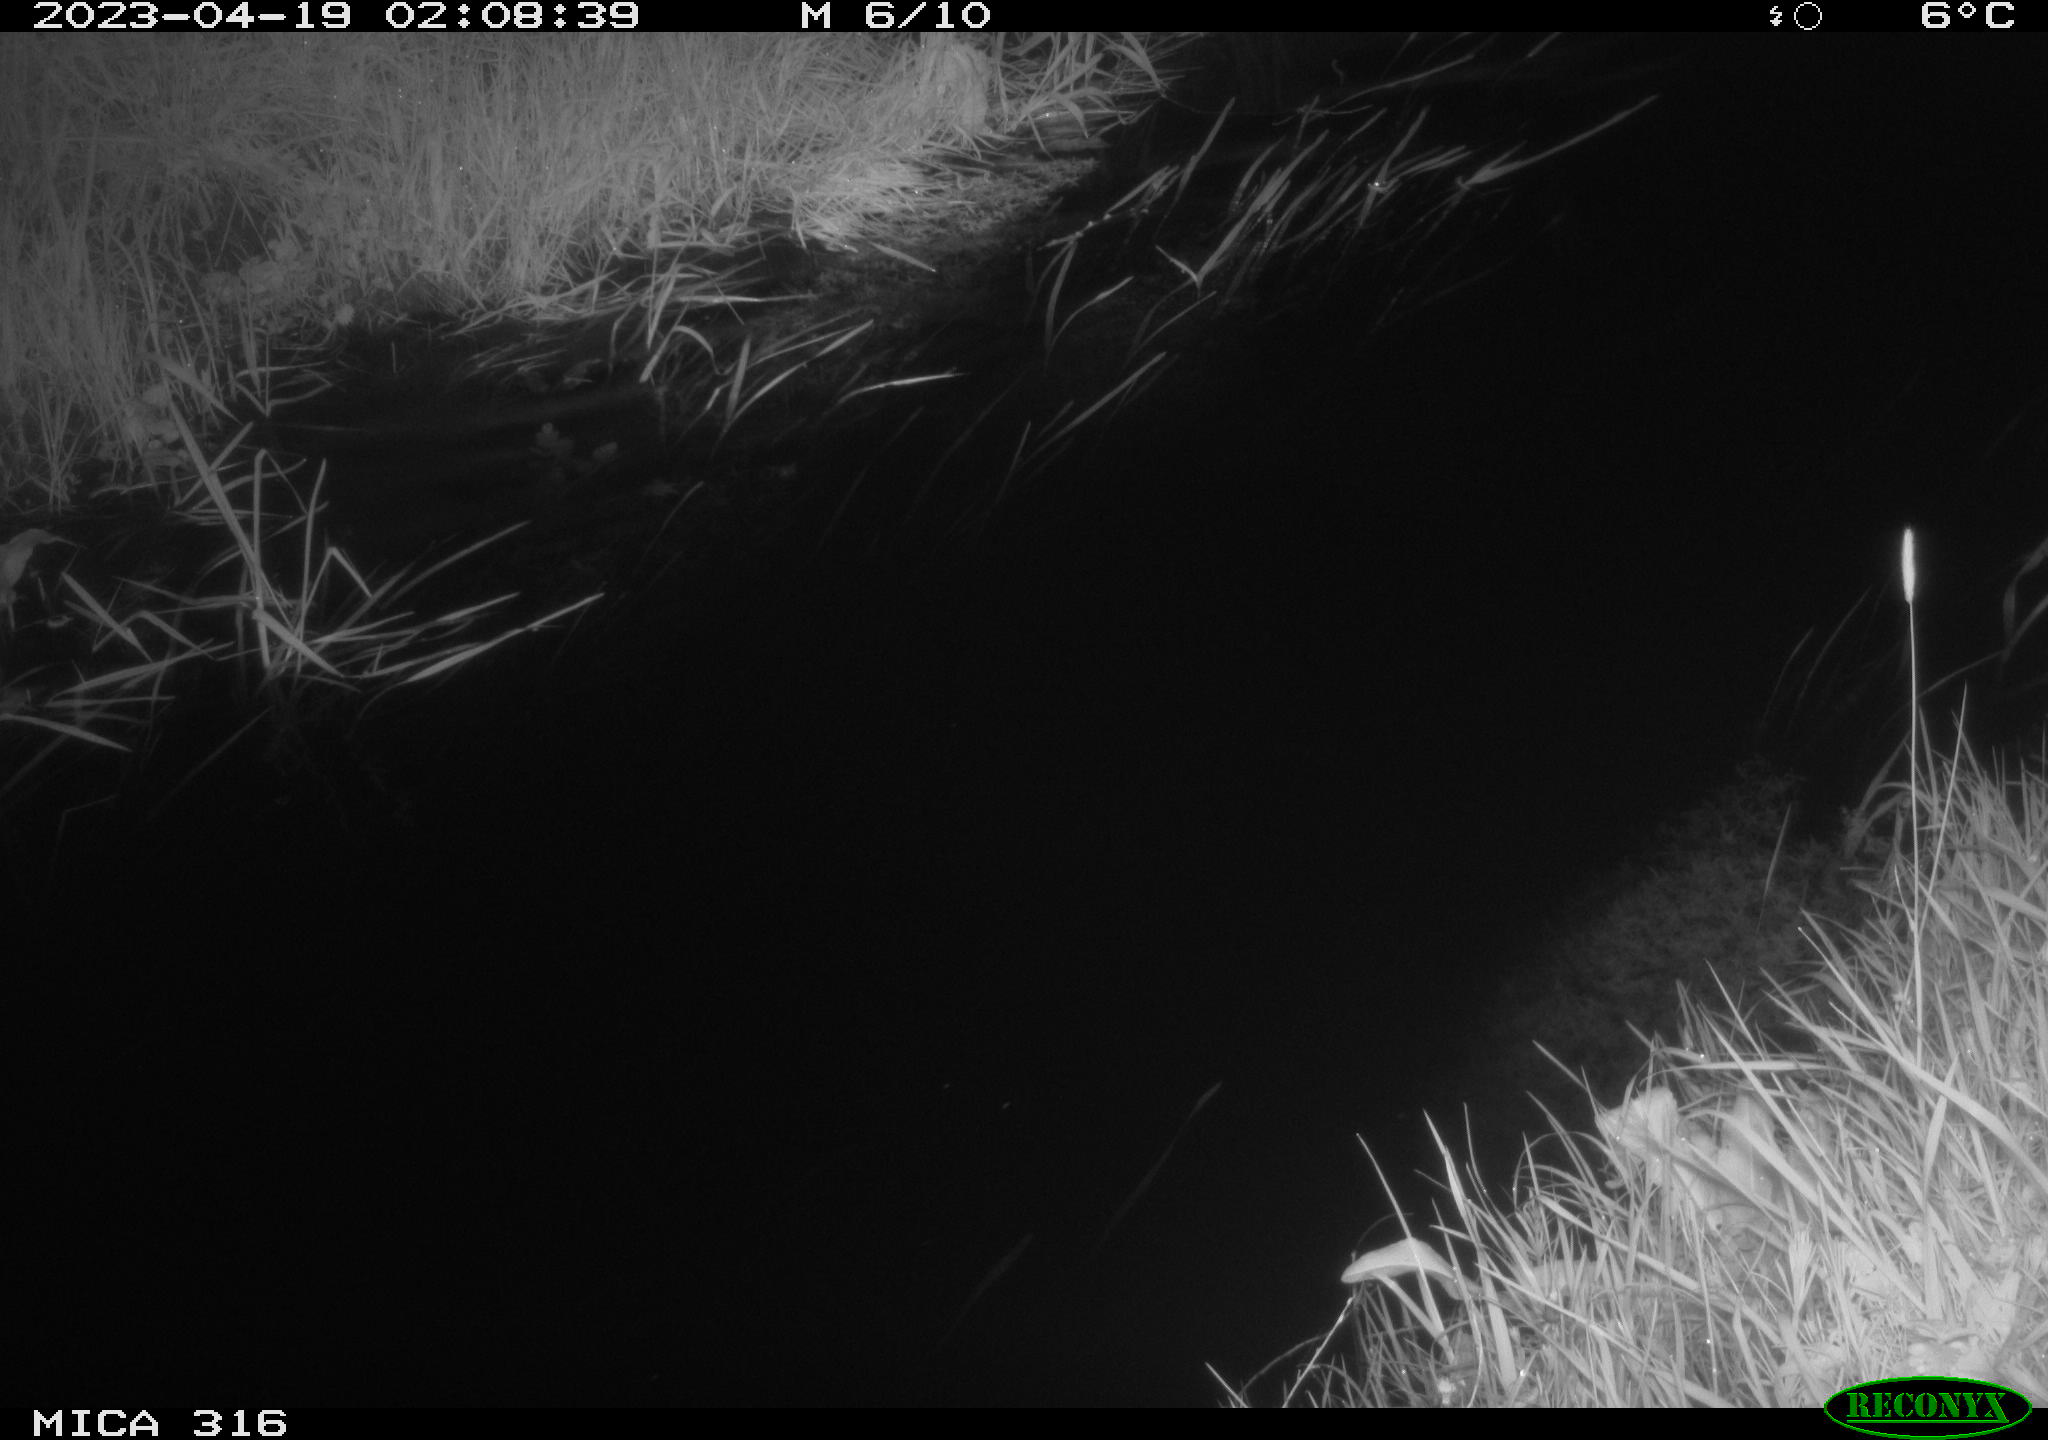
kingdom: Animalia
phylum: Chordata
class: Aves
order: Anseriformes
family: Anatidae
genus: Anas
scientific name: Anas
